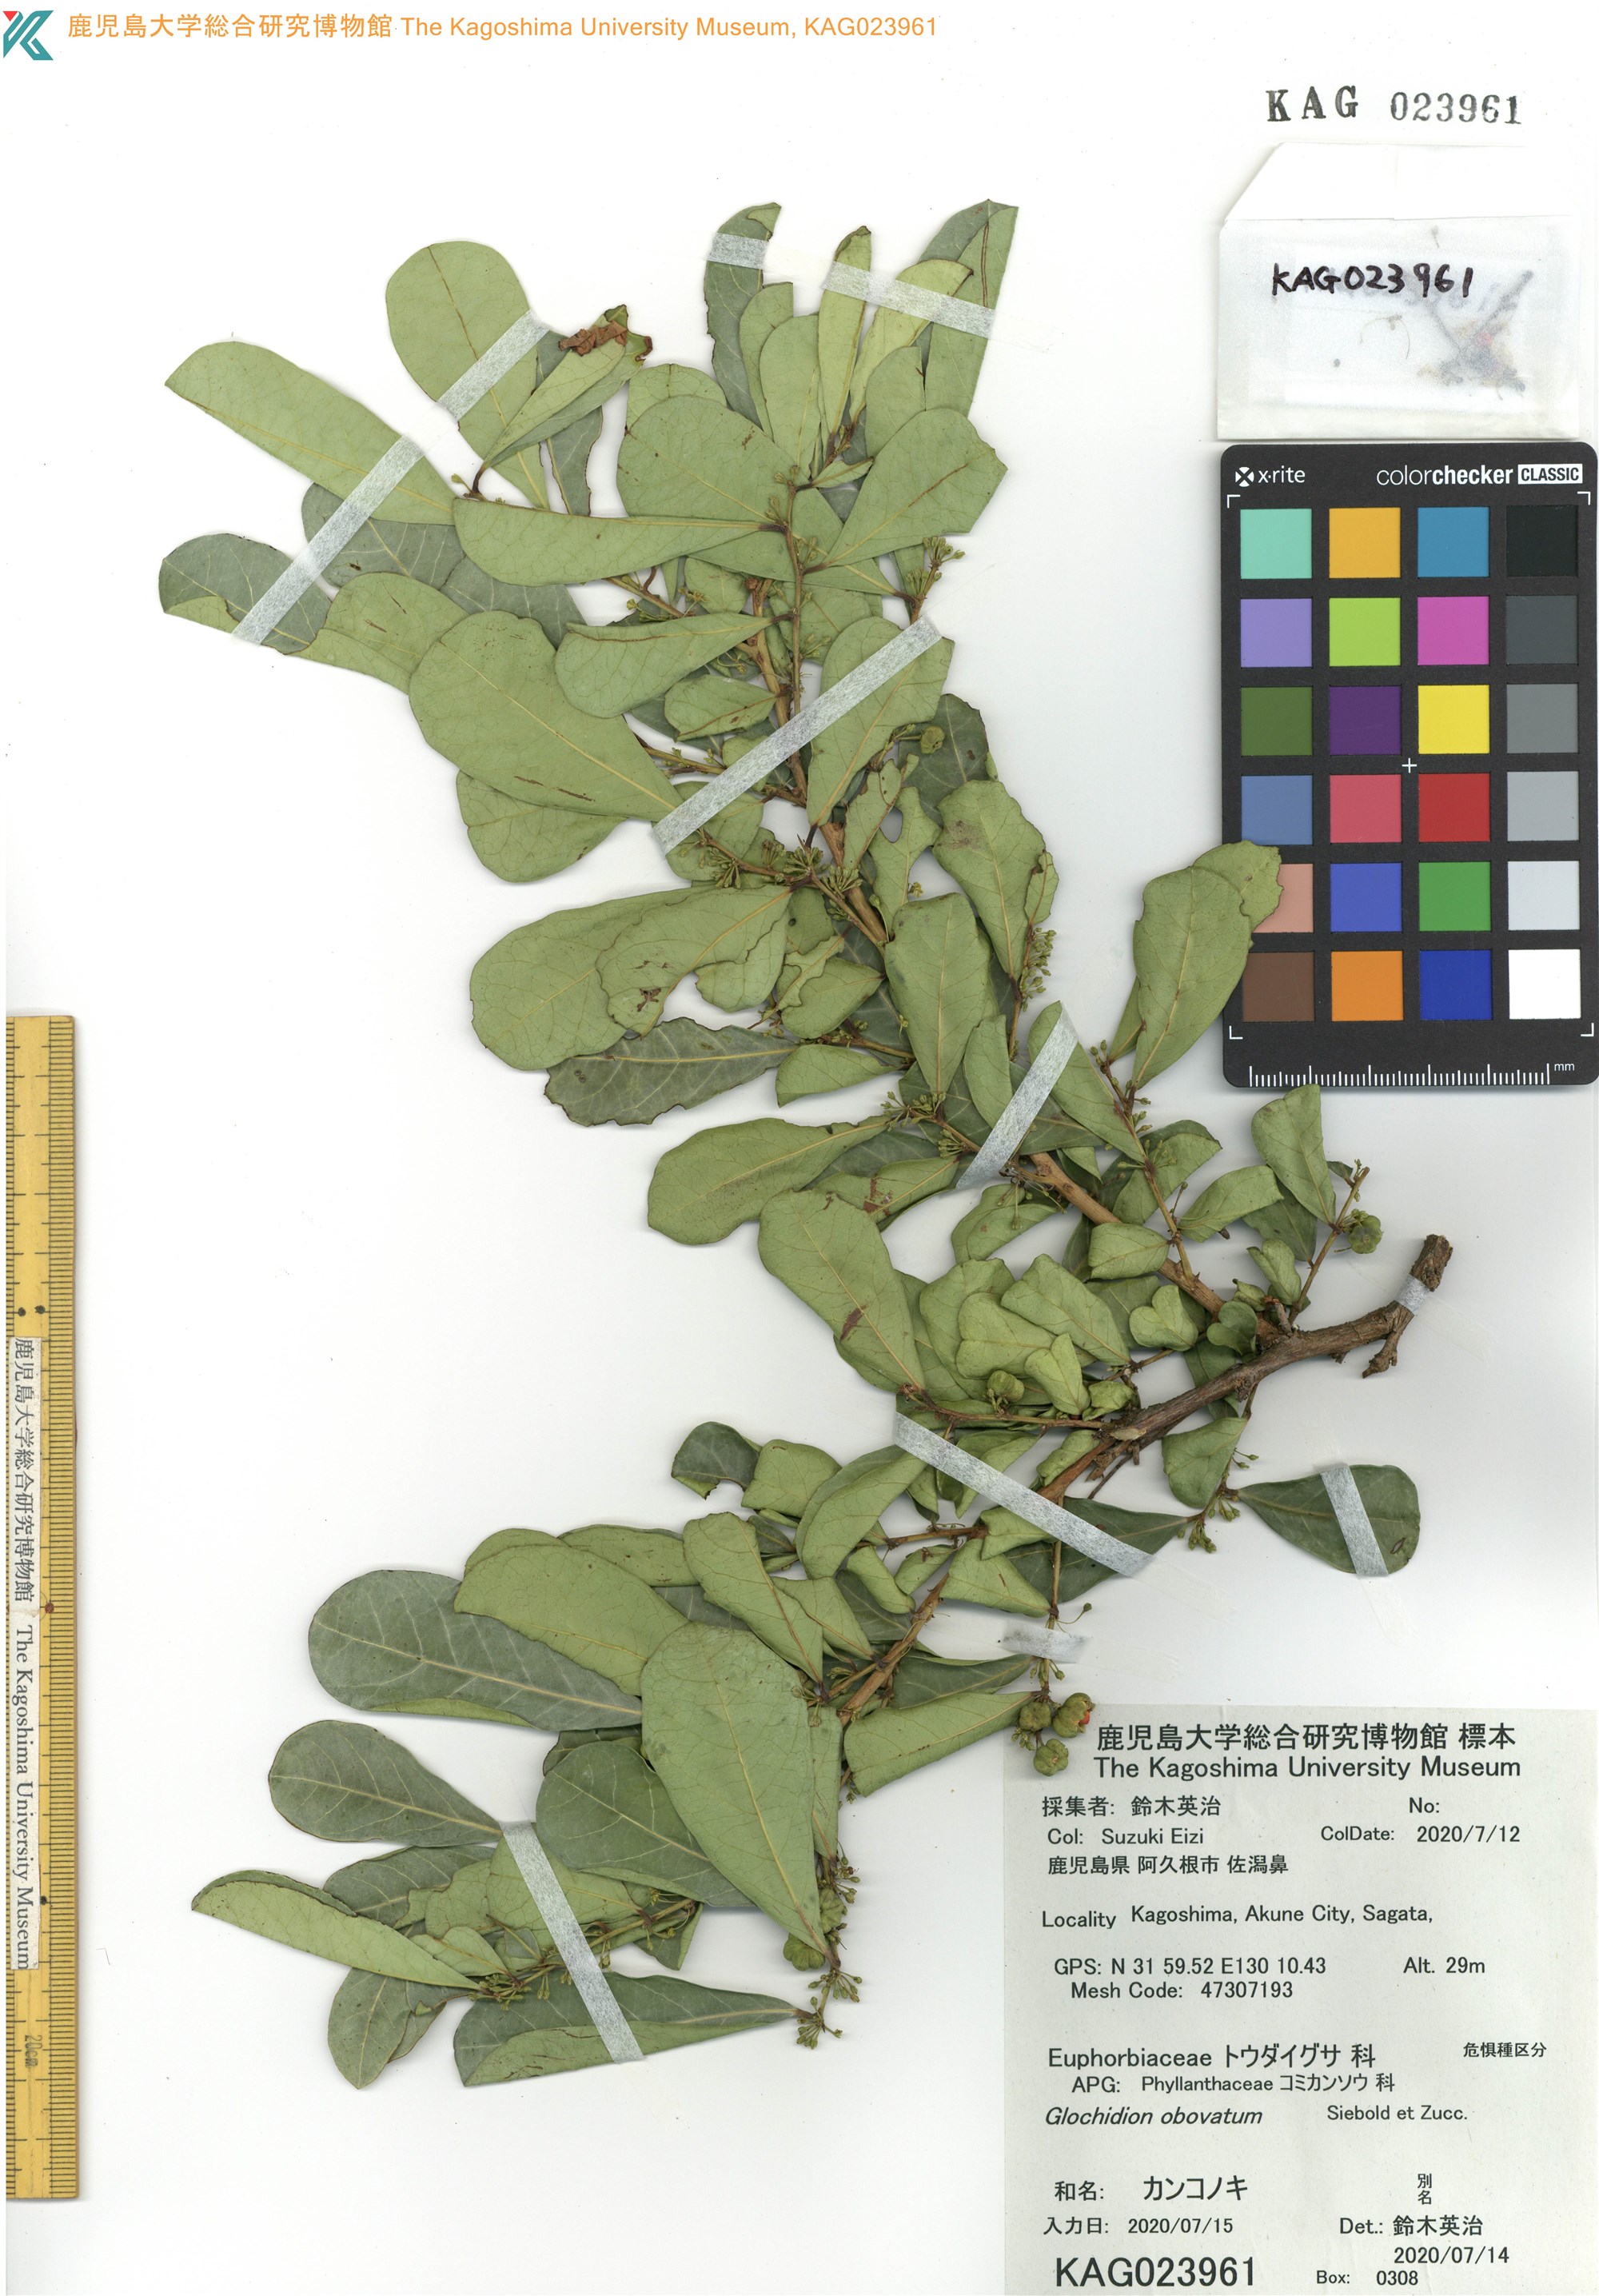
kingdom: Plantae
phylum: Tracheophyta
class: Magnoliopsida
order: Malpighiales
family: Phyllanthaceae
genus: Glochidion
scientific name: Glochidion obovatum
